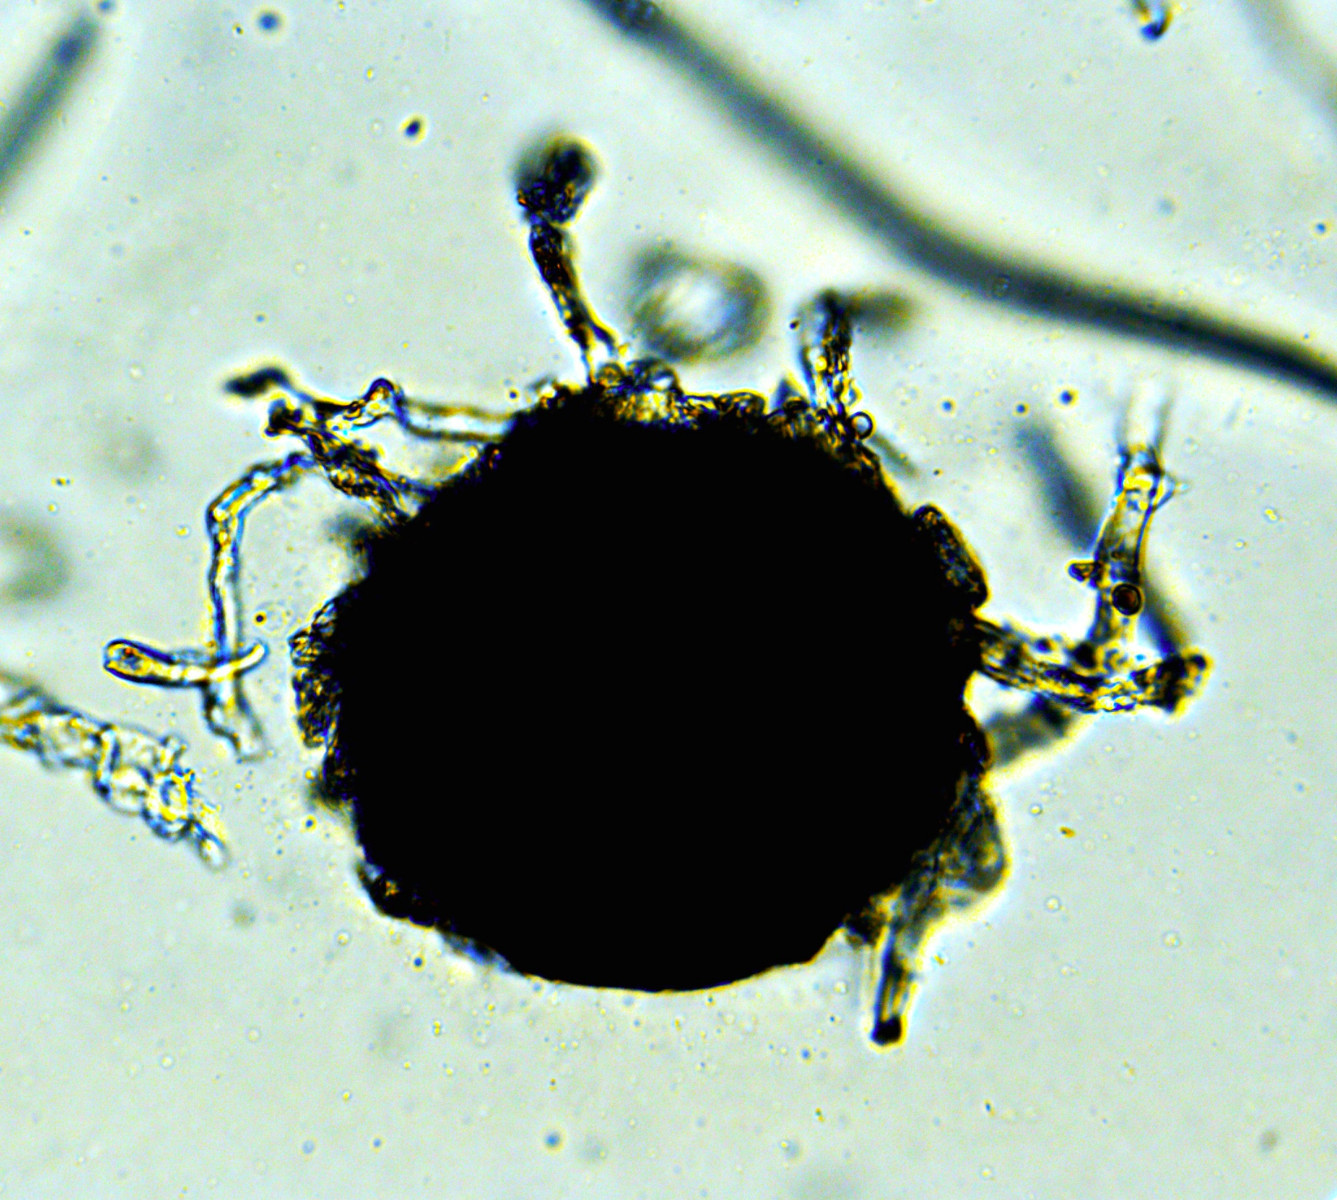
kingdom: Fungi
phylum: Ascomycota
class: Leotiomycetes
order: Helotiales
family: Erysiphaceae
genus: Golovinomyces
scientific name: Golovinomyces artemisiae
